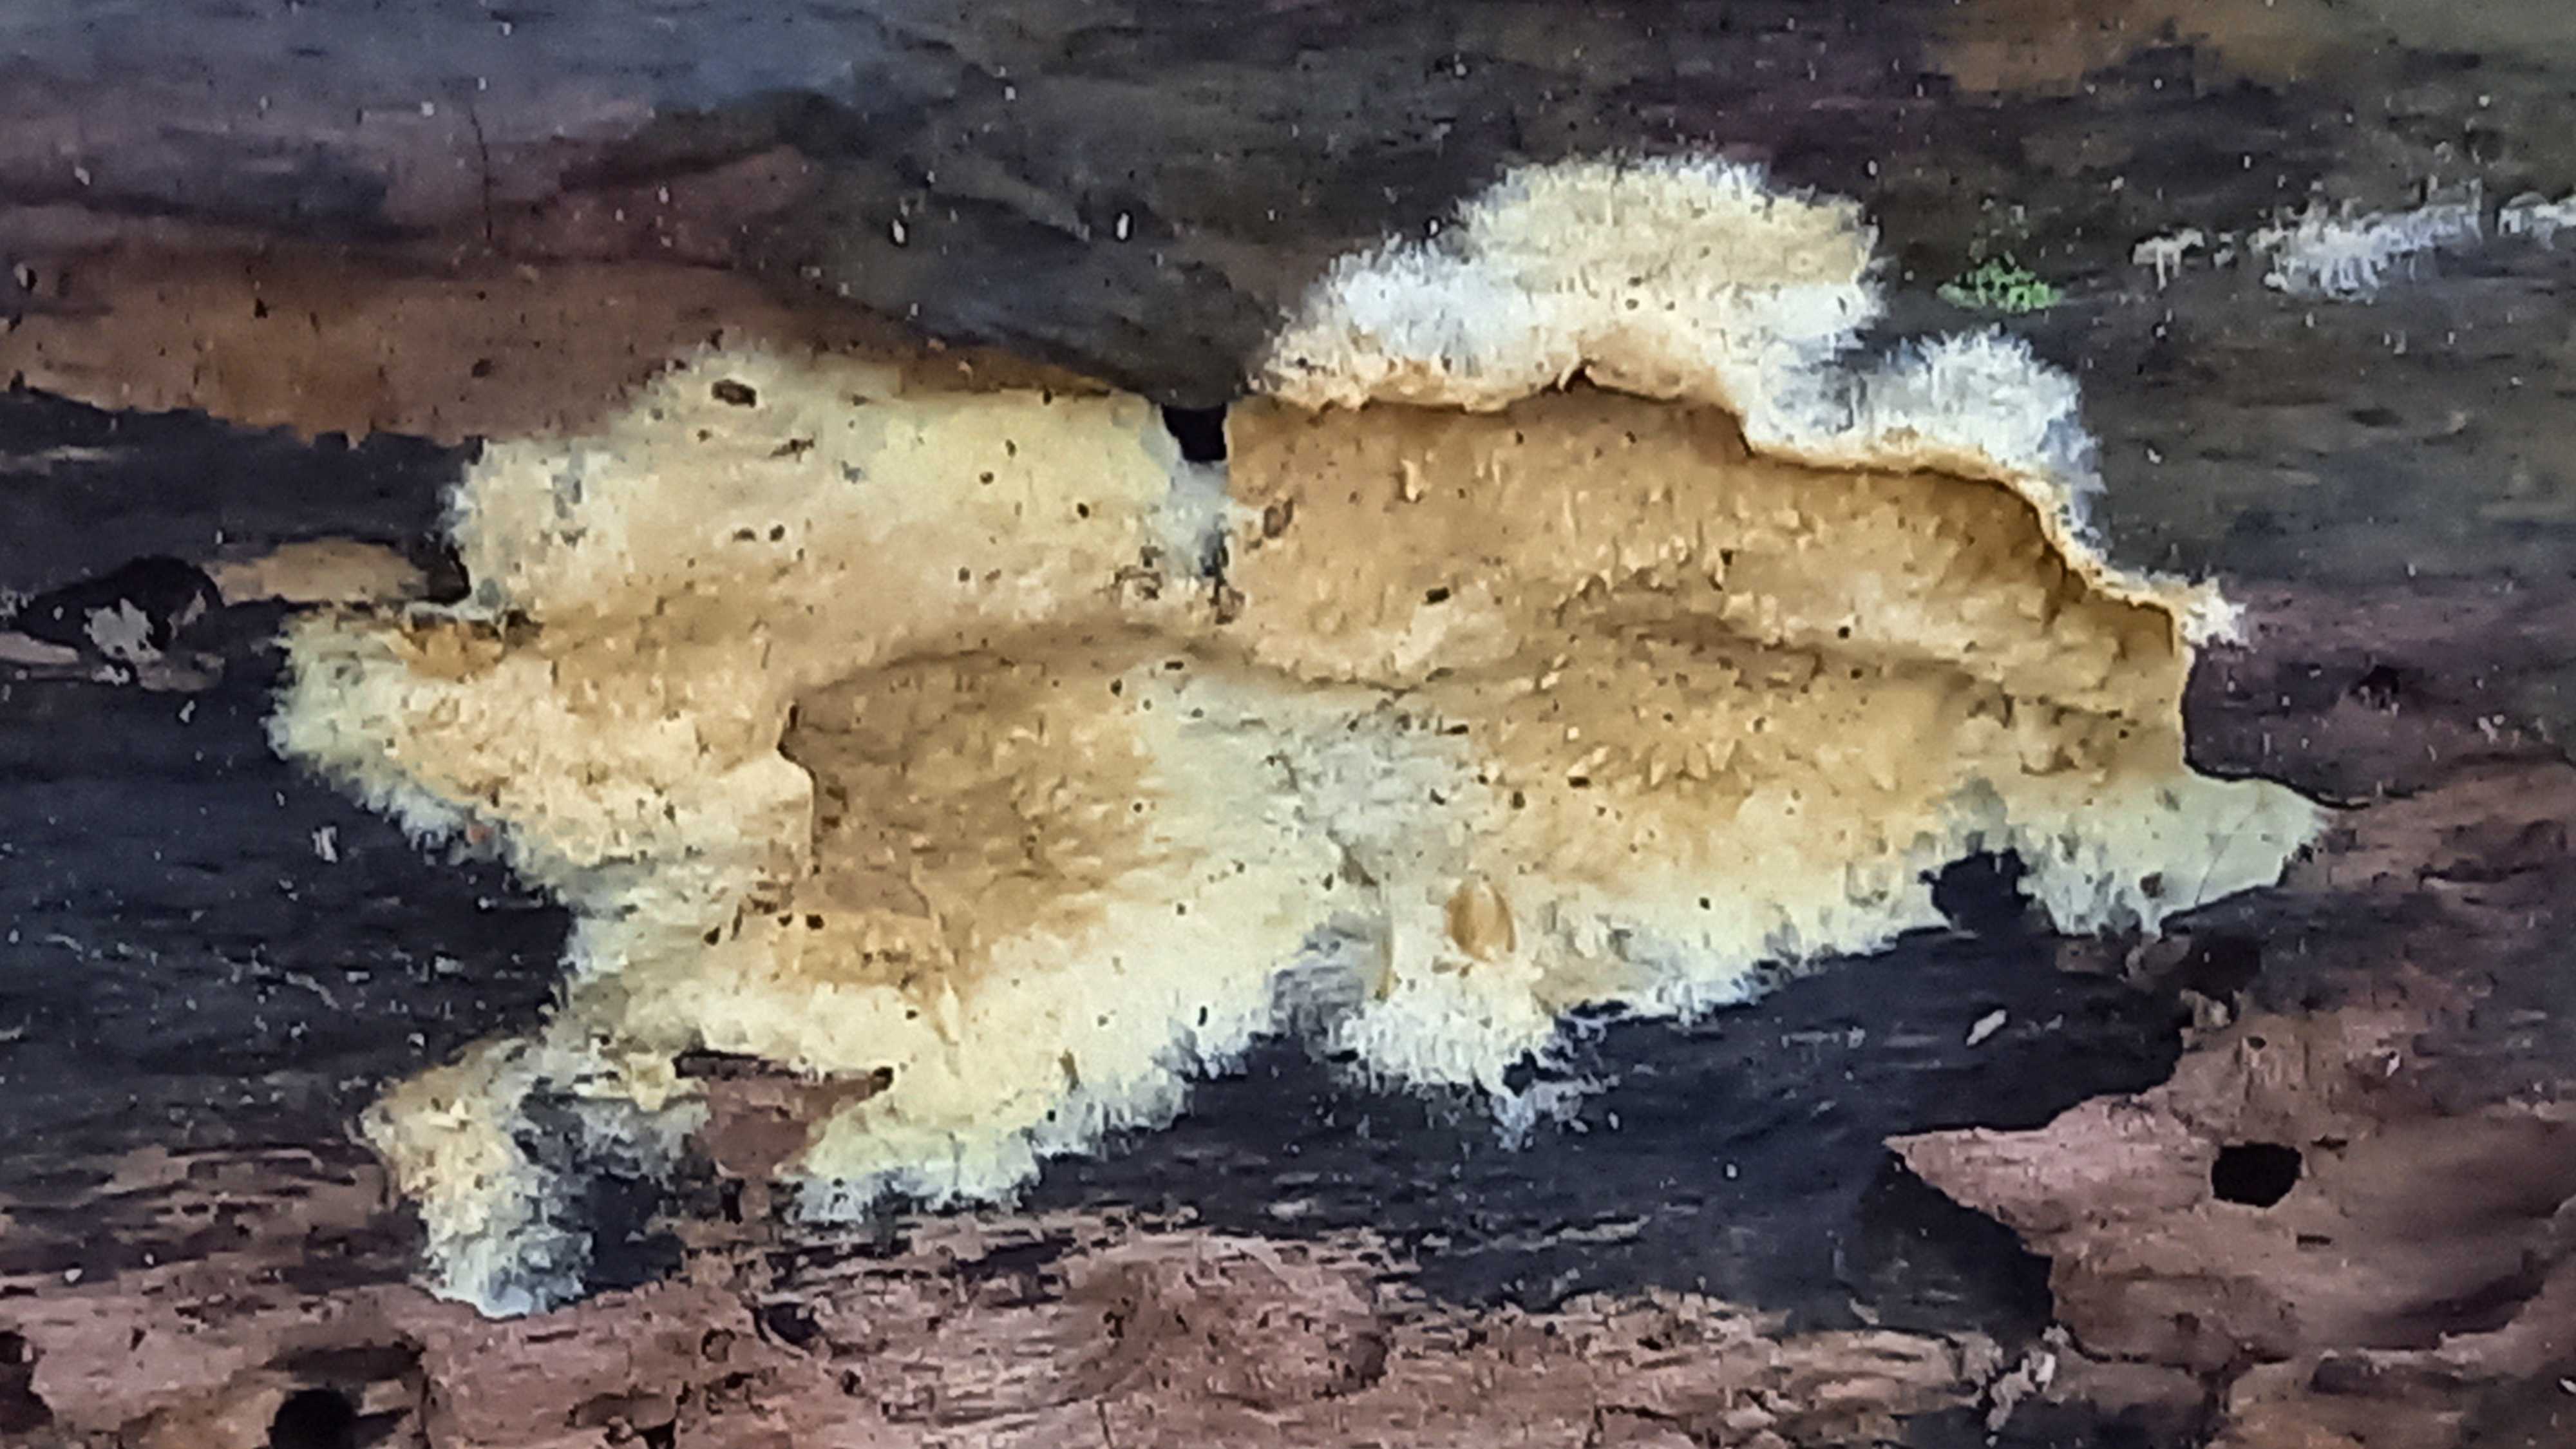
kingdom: Fungi
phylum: Basidiomycota
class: Agaricomycetes
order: Boletales
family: Coniophoraceae
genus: Coniophora
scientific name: Coniophora puteana
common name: gul tømmersvamp
